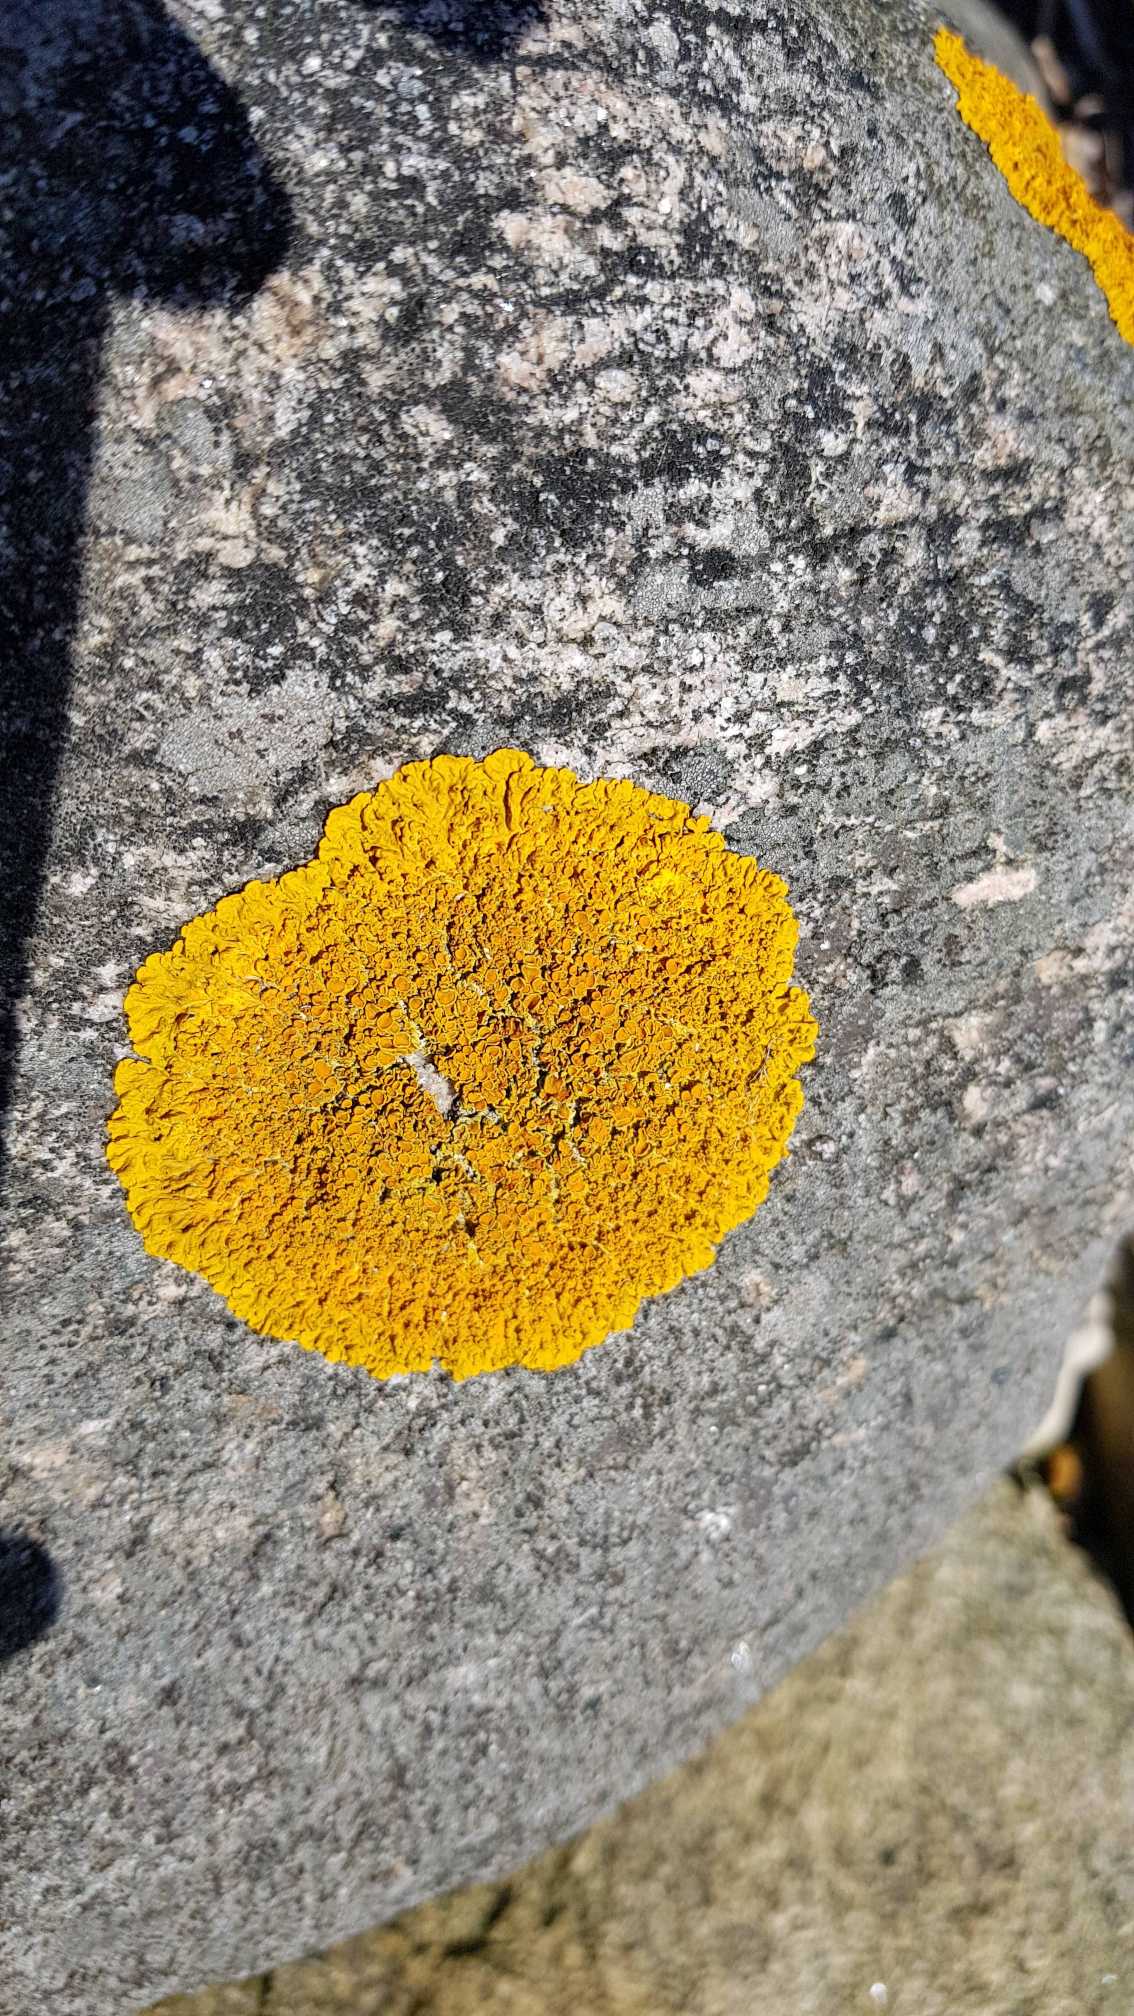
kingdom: Fungi
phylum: Ascomycota
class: Lecanoromycetes
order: Teloschistales
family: Teloschistaceae
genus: Xanthoria
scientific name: Xanthoria parietina
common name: Almindelig væggelav
